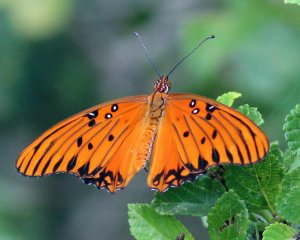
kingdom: Animalia
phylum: Arthropoda
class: Insecta
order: Lepidoptera
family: Nymphalidae
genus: Dione
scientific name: Dione vanillae
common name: Gulf Fritillary
